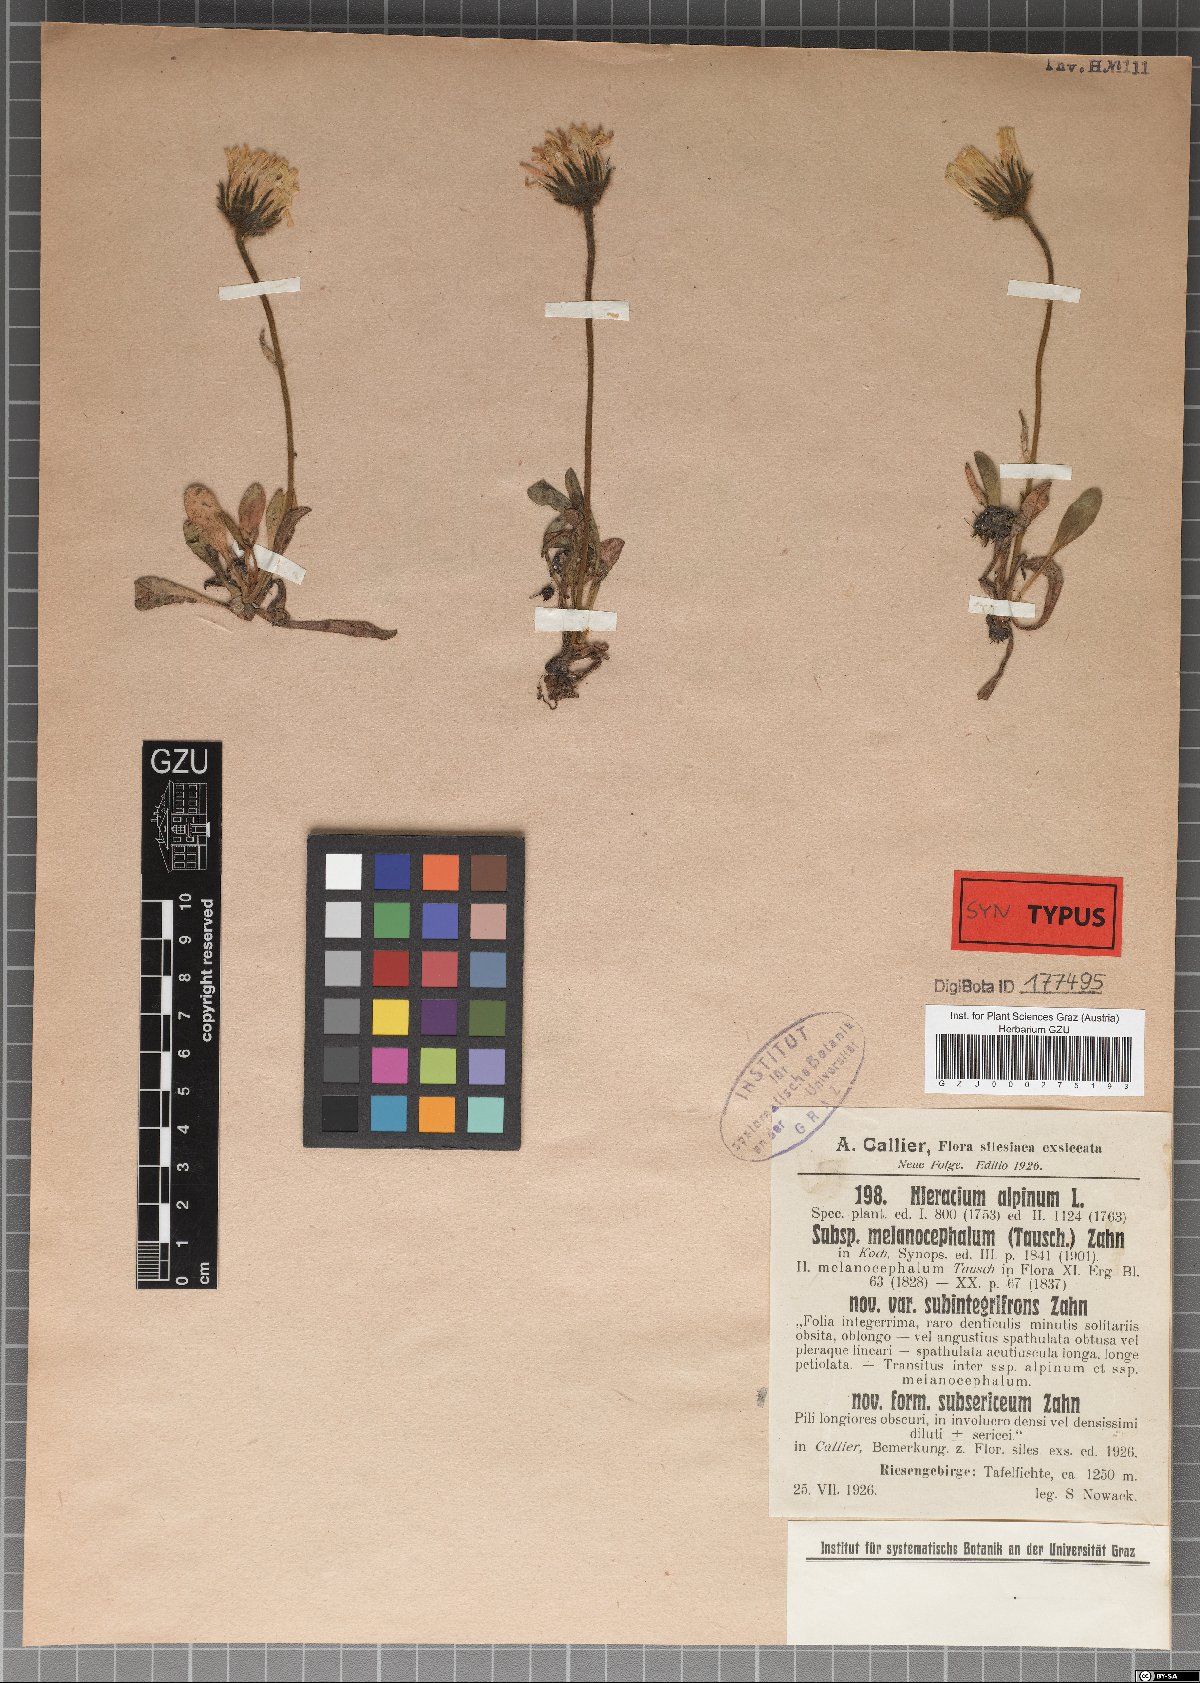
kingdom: Plantae
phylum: Tracheophyta
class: Magnoliopsida
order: Asterales
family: Asteraceae
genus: Hieracium
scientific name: Hieracium alpinum
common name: Alpine hawkweed
